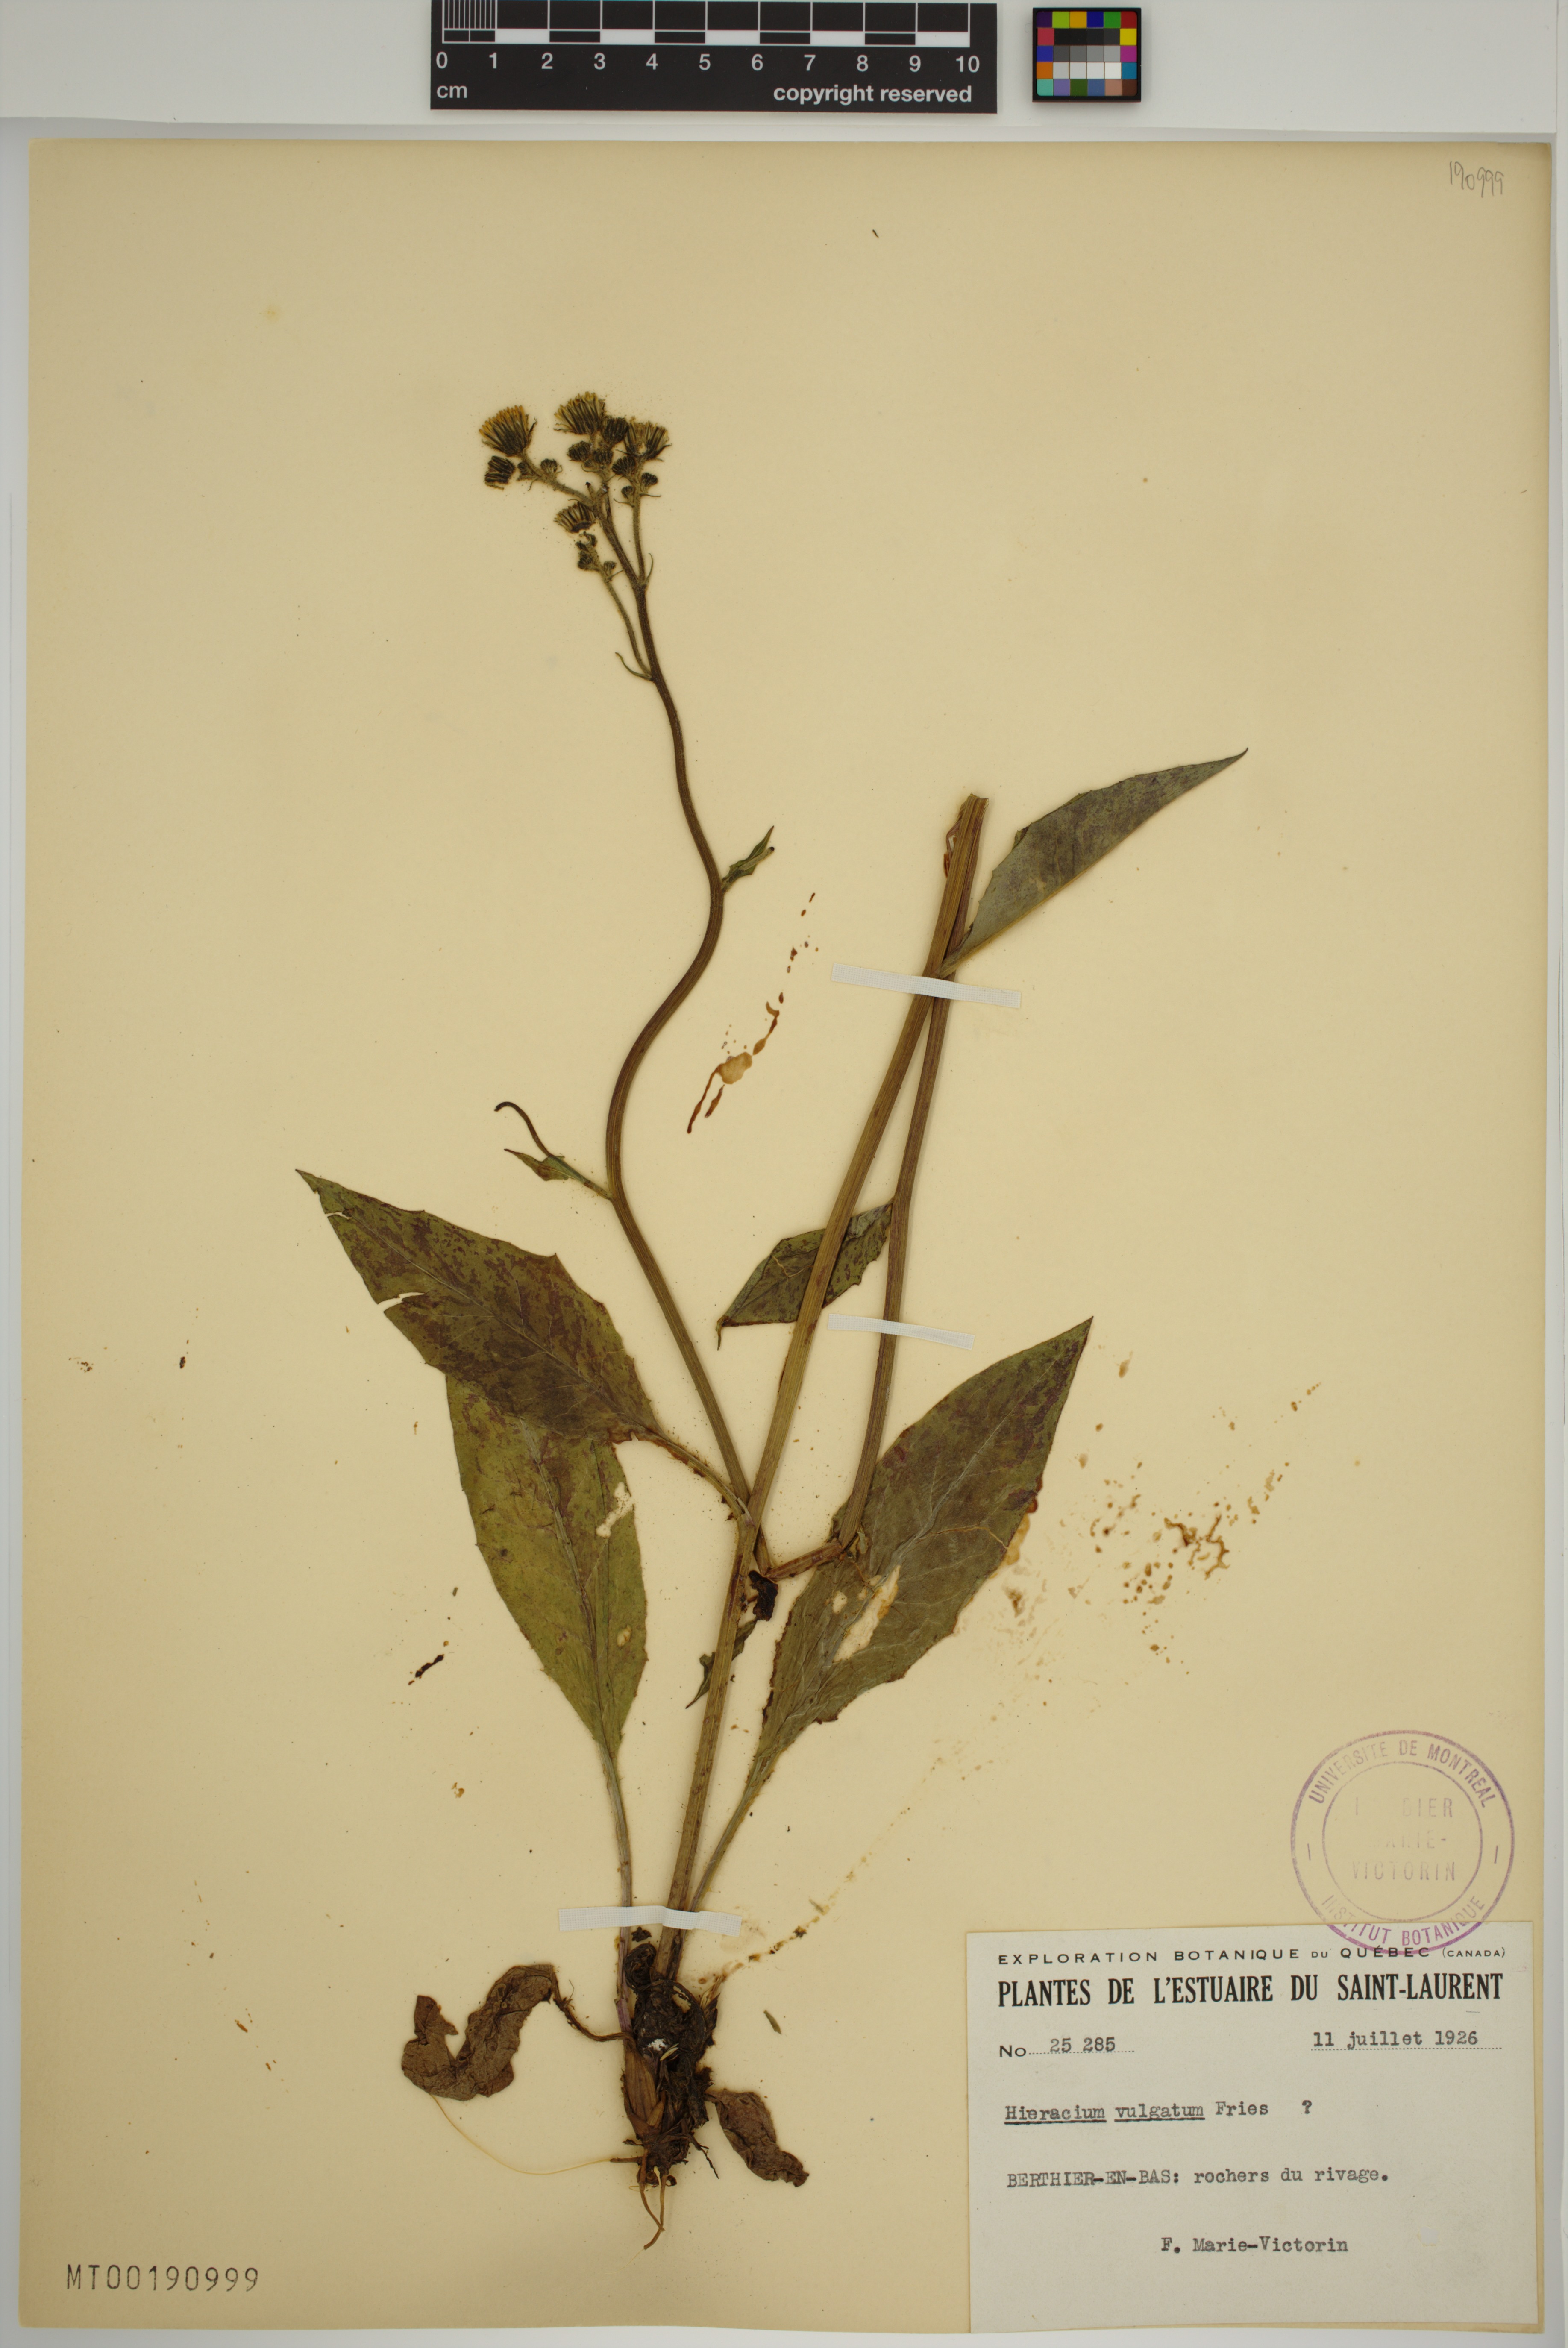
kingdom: Plantae
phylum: Tracheophyta
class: Magnoliopsida
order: Asterales
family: Asteraceae
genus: Hieracium
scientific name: Hieracium lachenalii
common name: Common hawkweed
